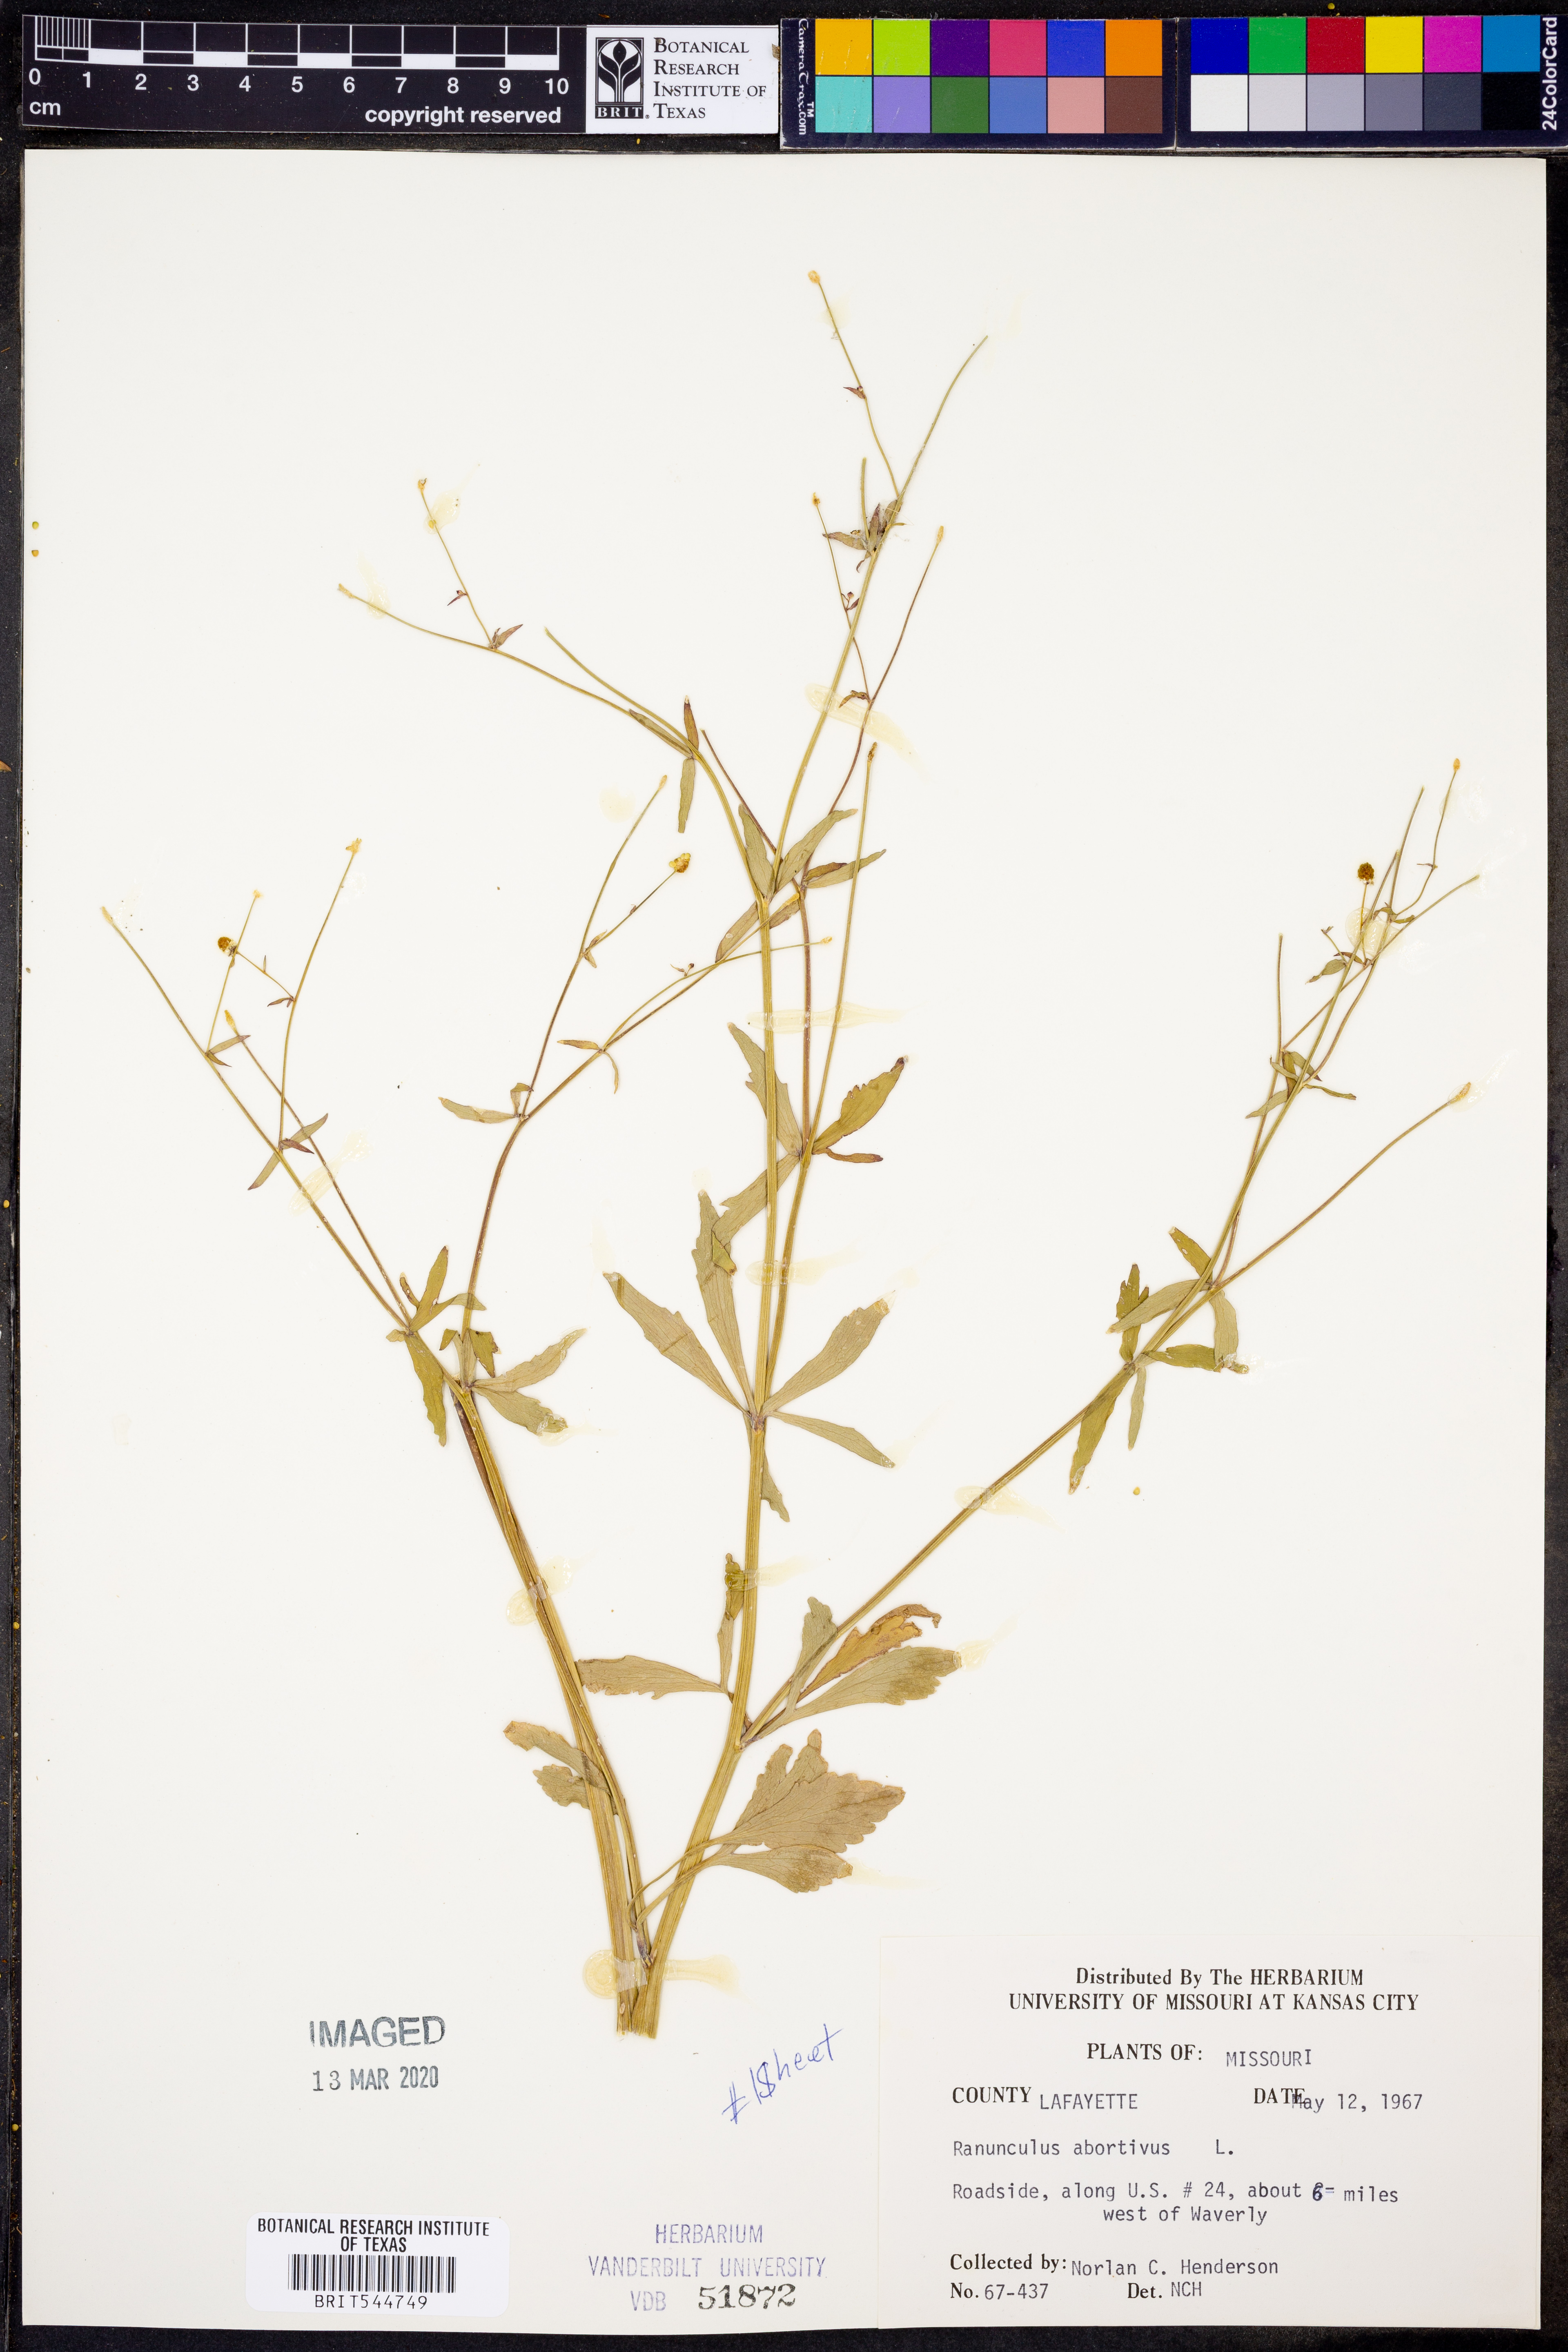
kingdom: Plantae
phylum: Tracheophyta
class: Magnoliopsida
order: Ranunculales
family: Ranunculaceae
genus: Ranunculus
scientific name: Ranunculus abortivus
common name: Early wood buttercup
